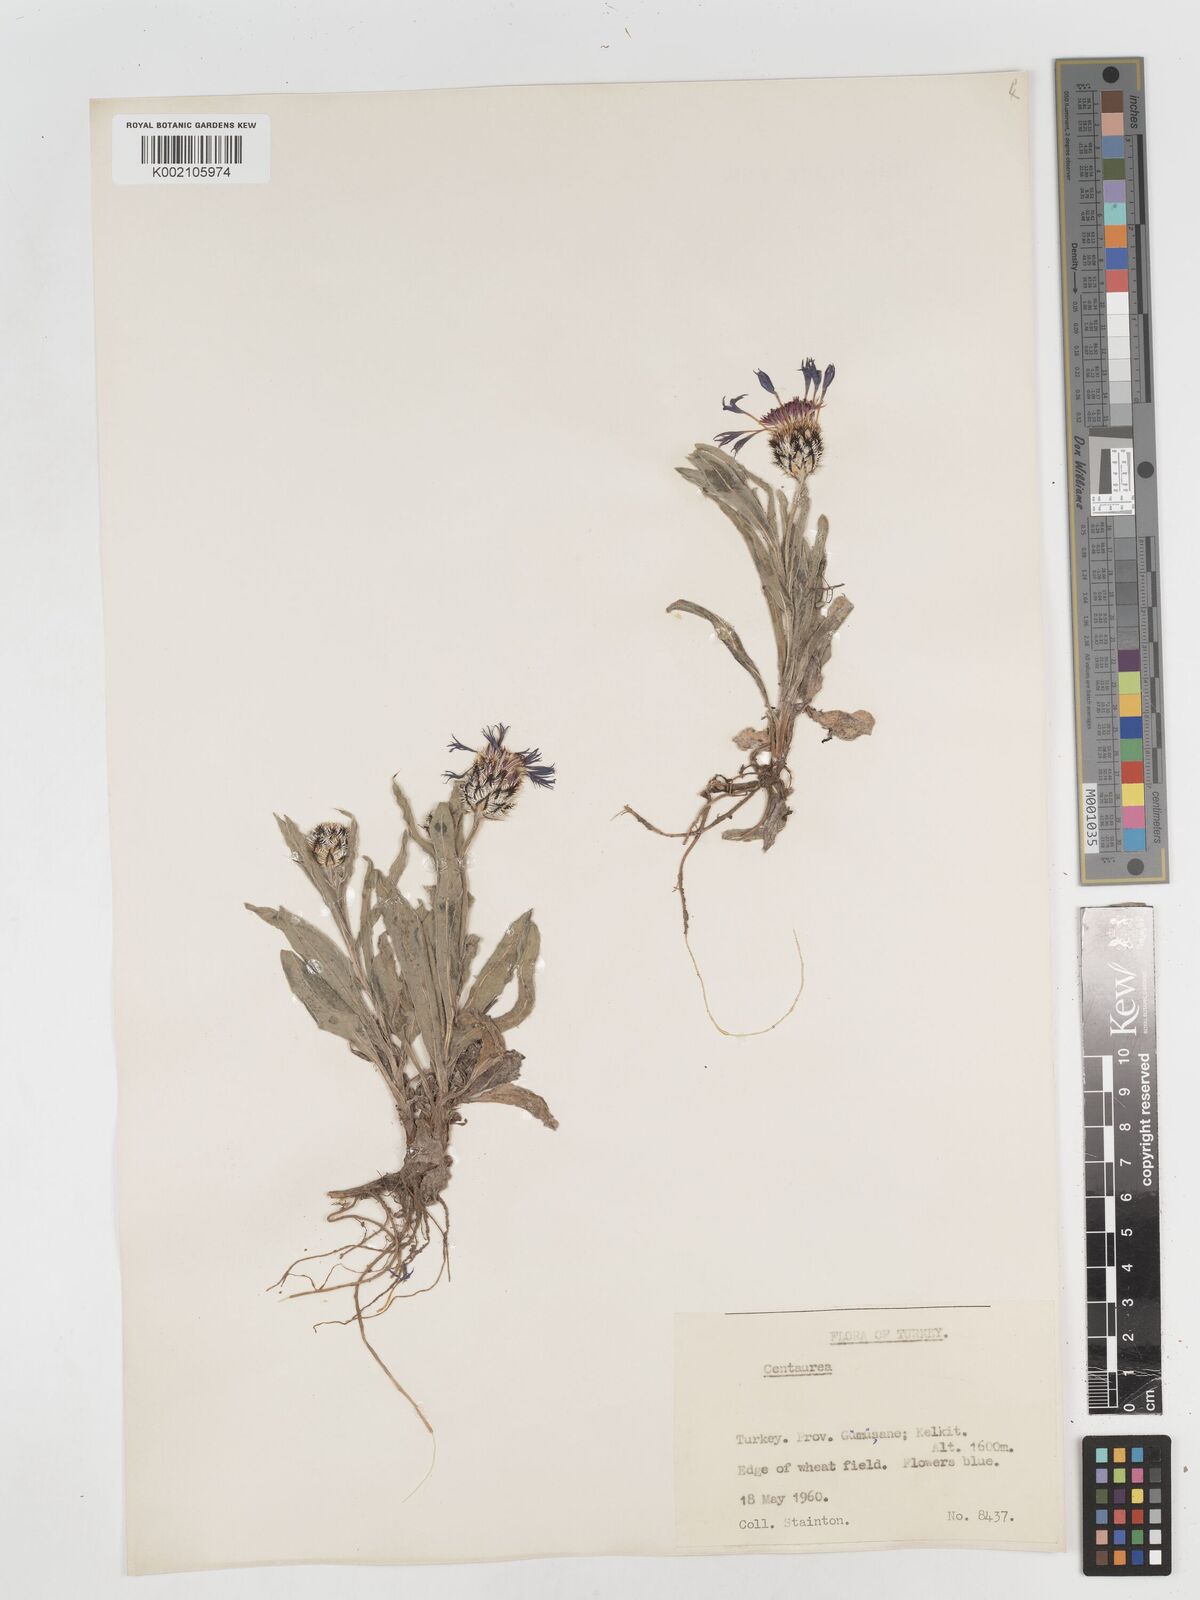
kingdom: Plantae
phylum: Tracheophyta
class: Magnoliopsida
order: Asterales
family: Asteraceae
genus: Centaurea
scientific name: Centaurea
